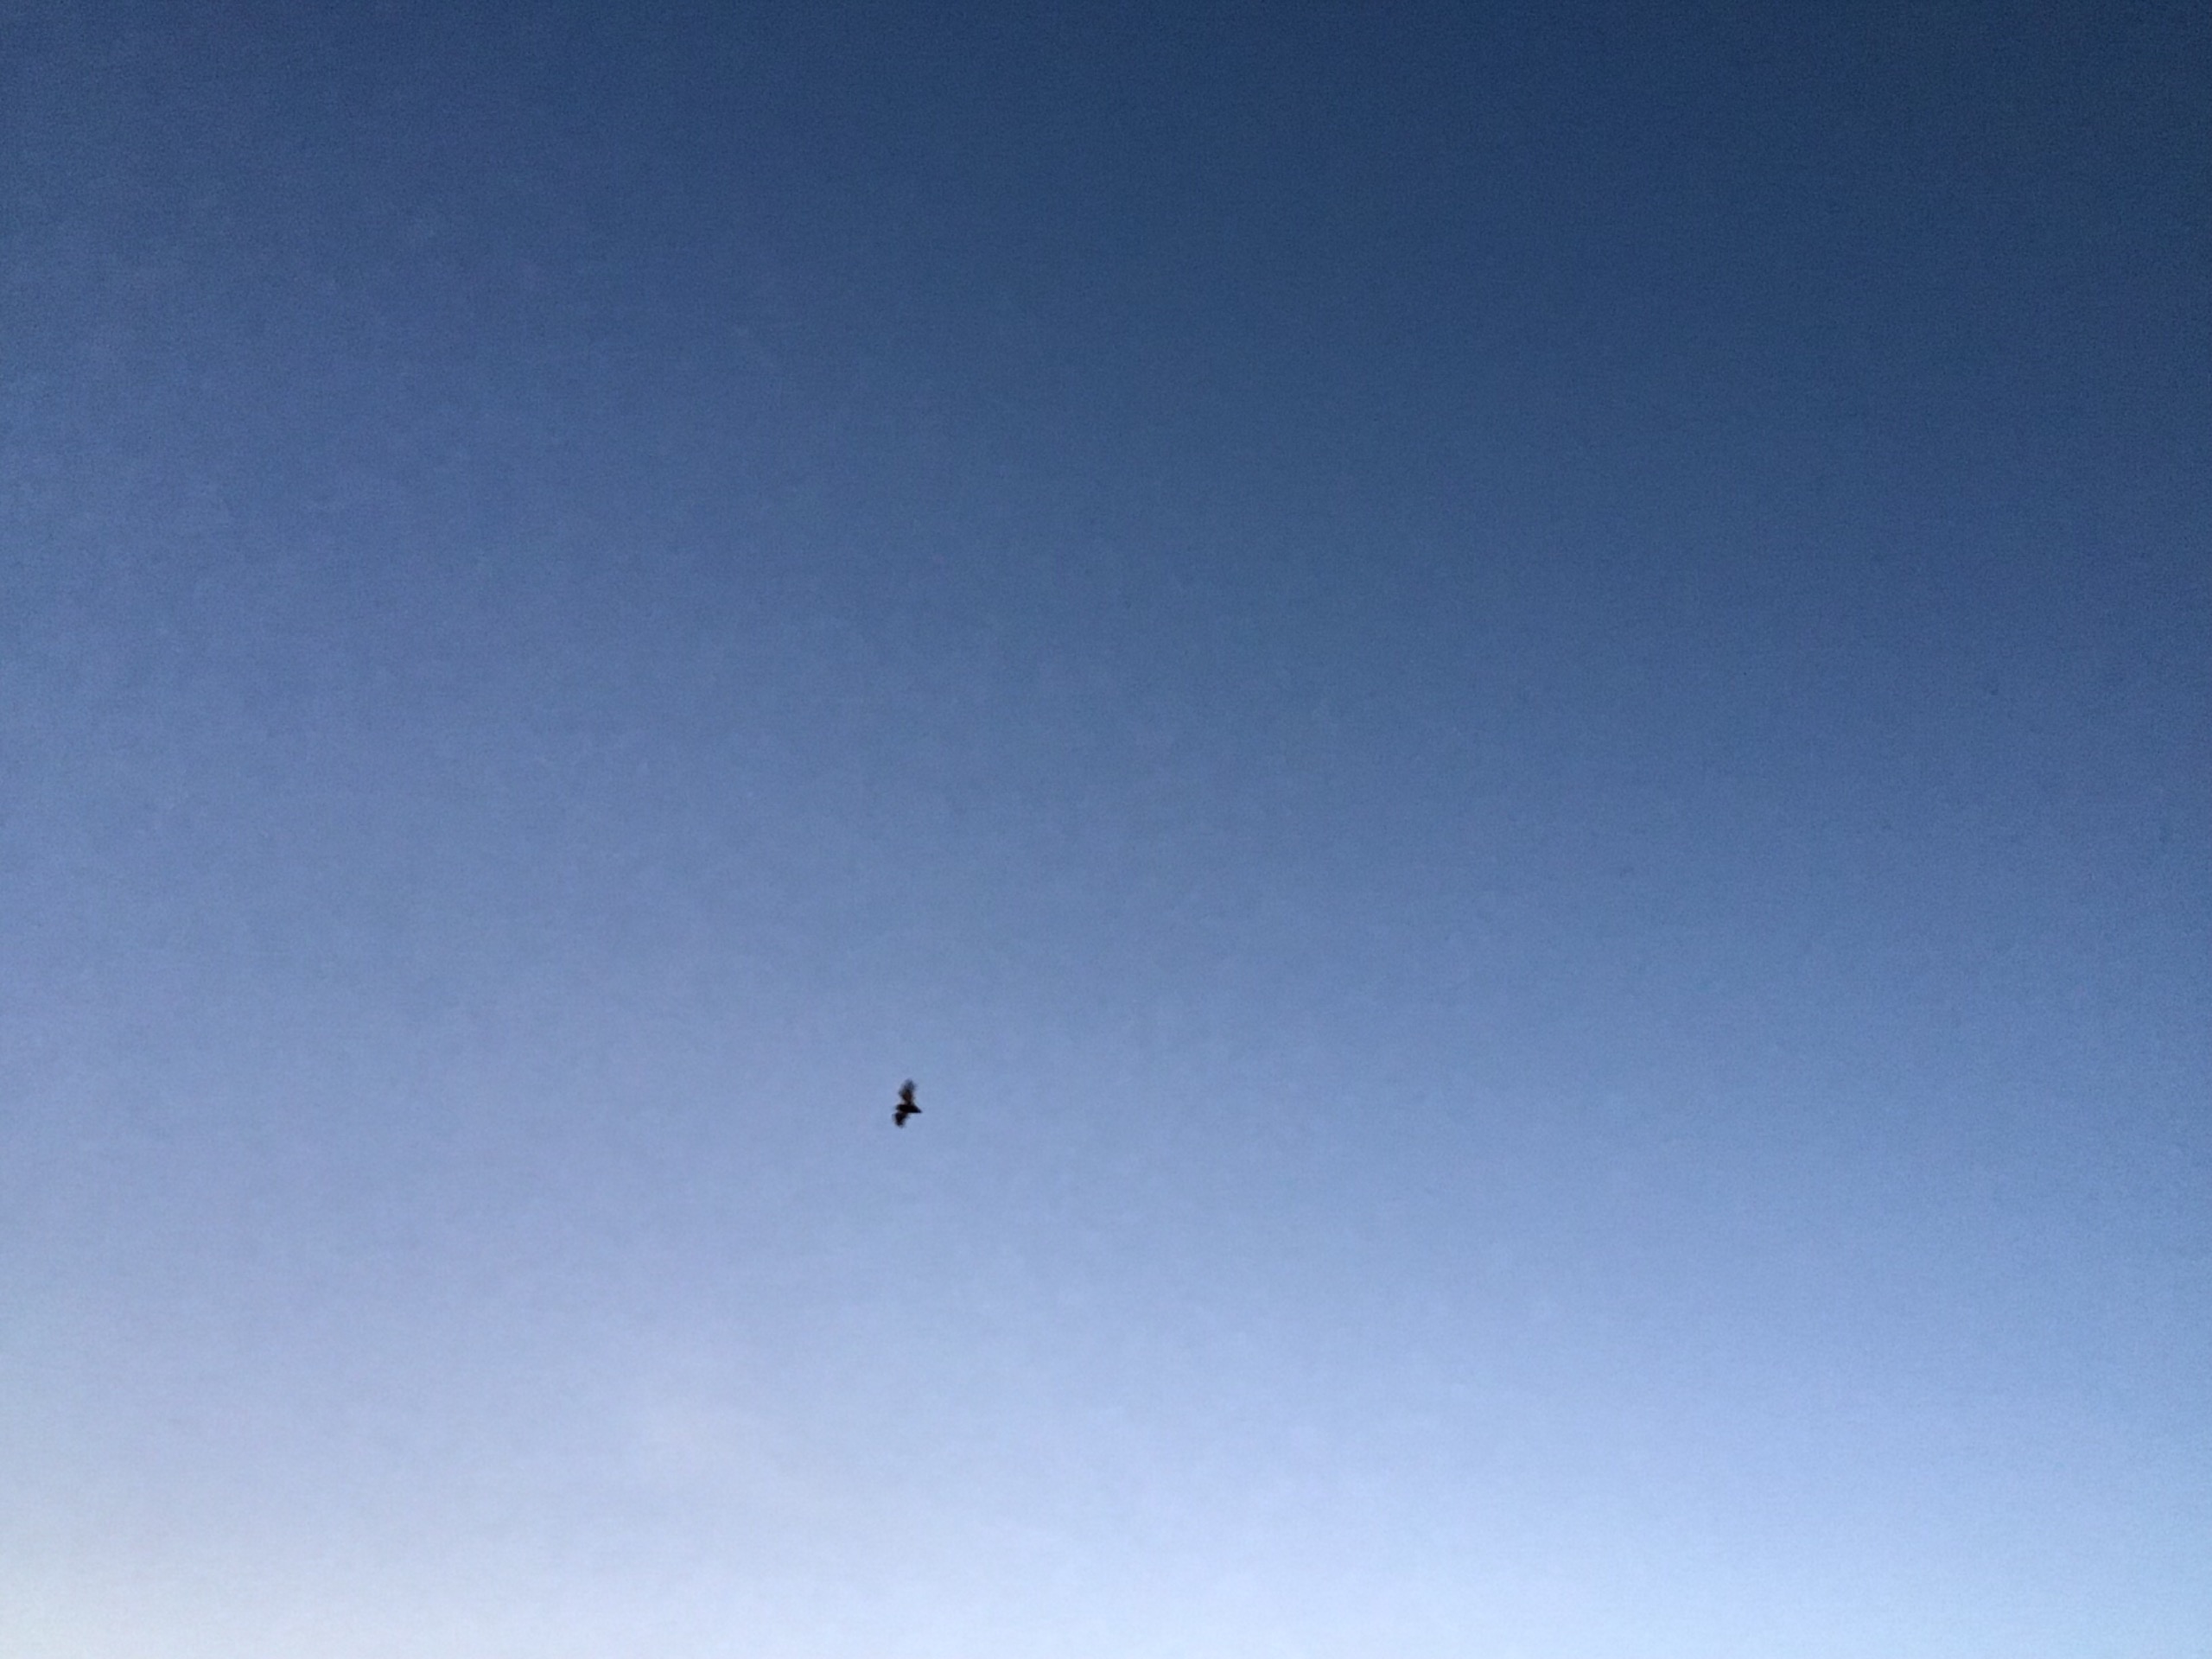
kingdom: Animalia
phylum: Chordata
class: Mammalia
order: Chiroptera
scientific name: Chiroptera
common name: Flagermus
